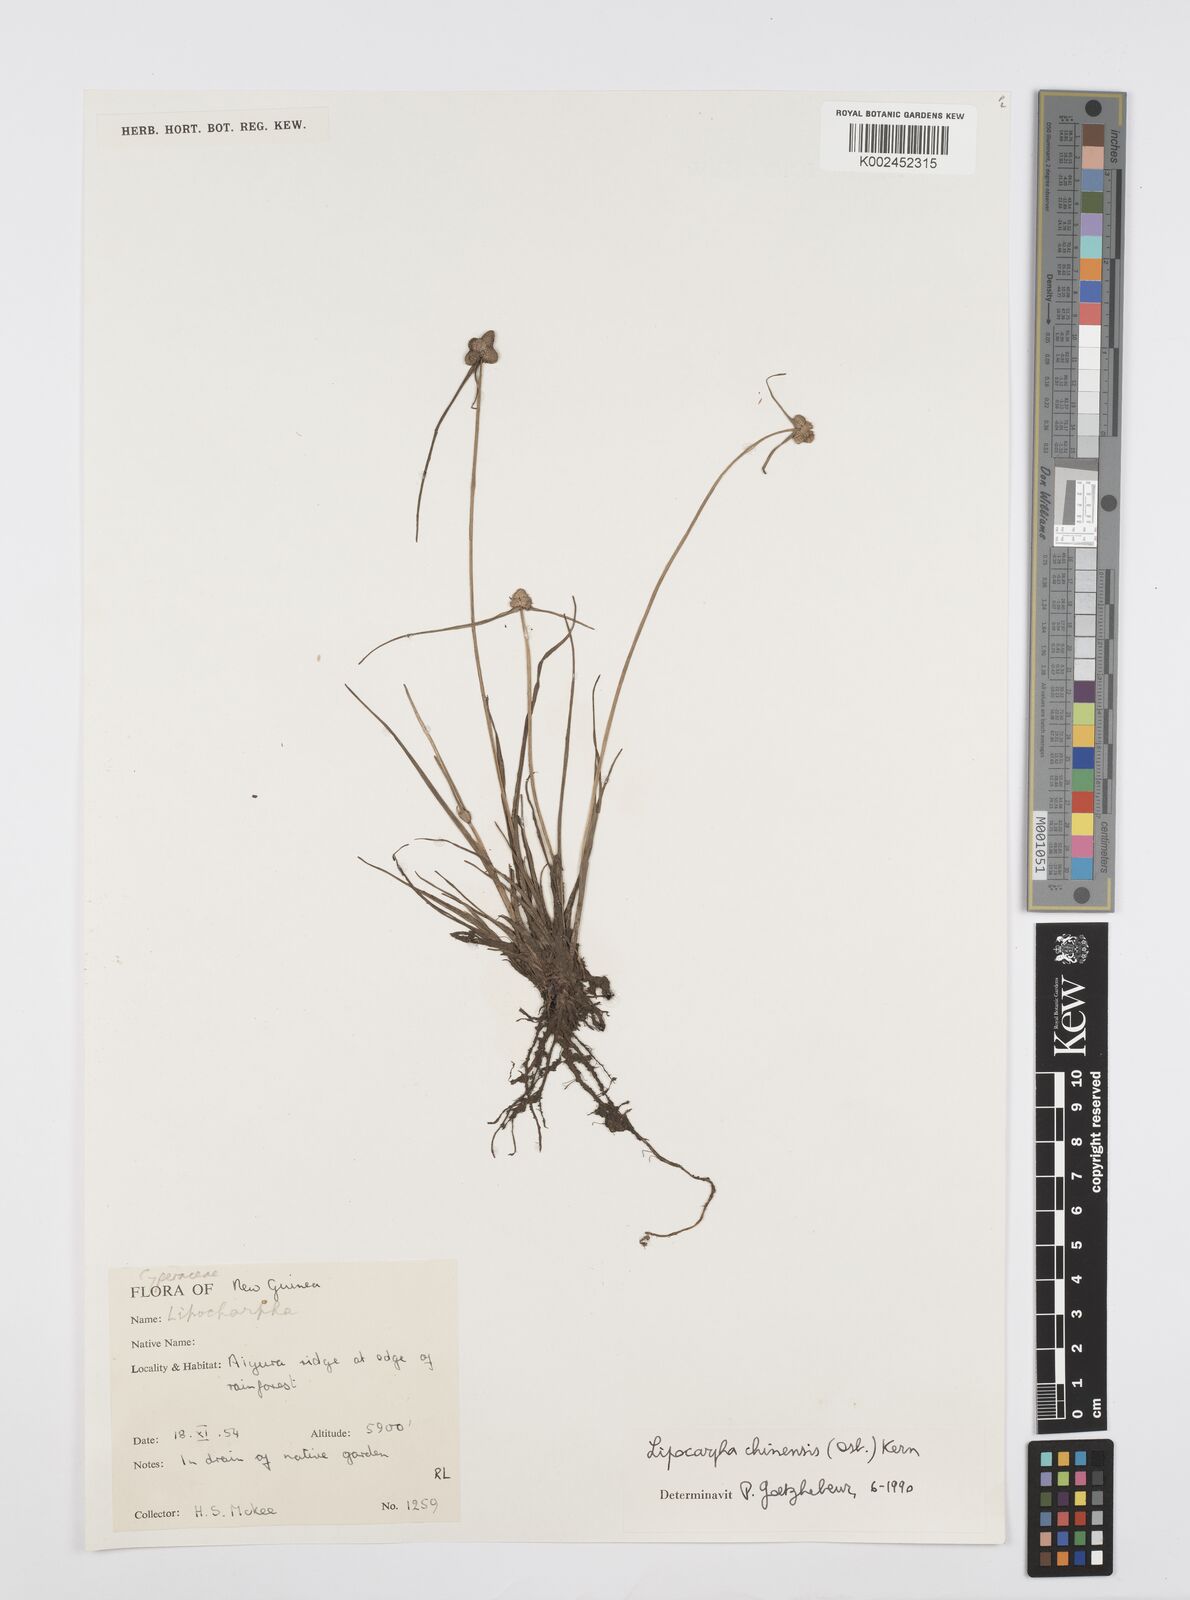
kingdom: Plantae
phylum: Tracheophyta
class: Liliopsida
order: Poales
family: Cyperaceae
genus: Cyperus
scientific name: Cyperus
